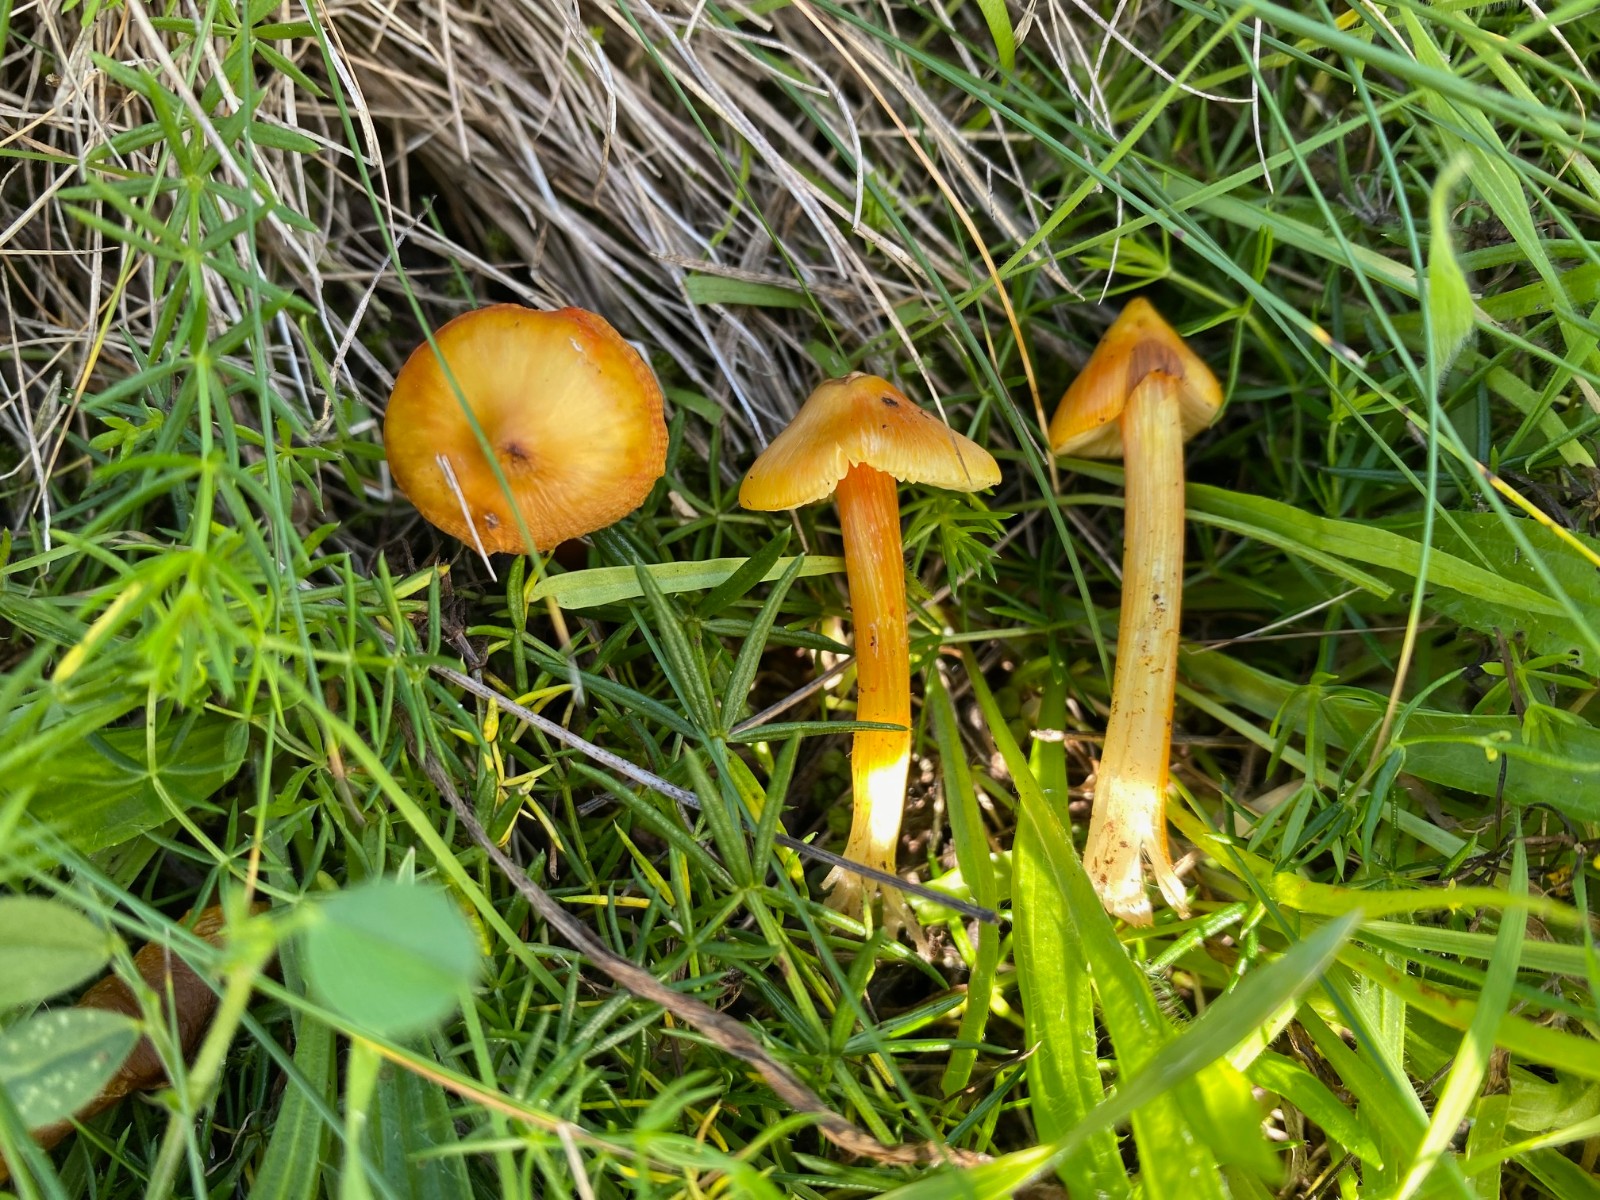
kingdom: Fungi
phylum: Basidiomycota
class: Agaricomycetes
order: Agaricales
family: Hygrophoraceae
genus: Hygrocybe
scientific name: Hygrocybe
